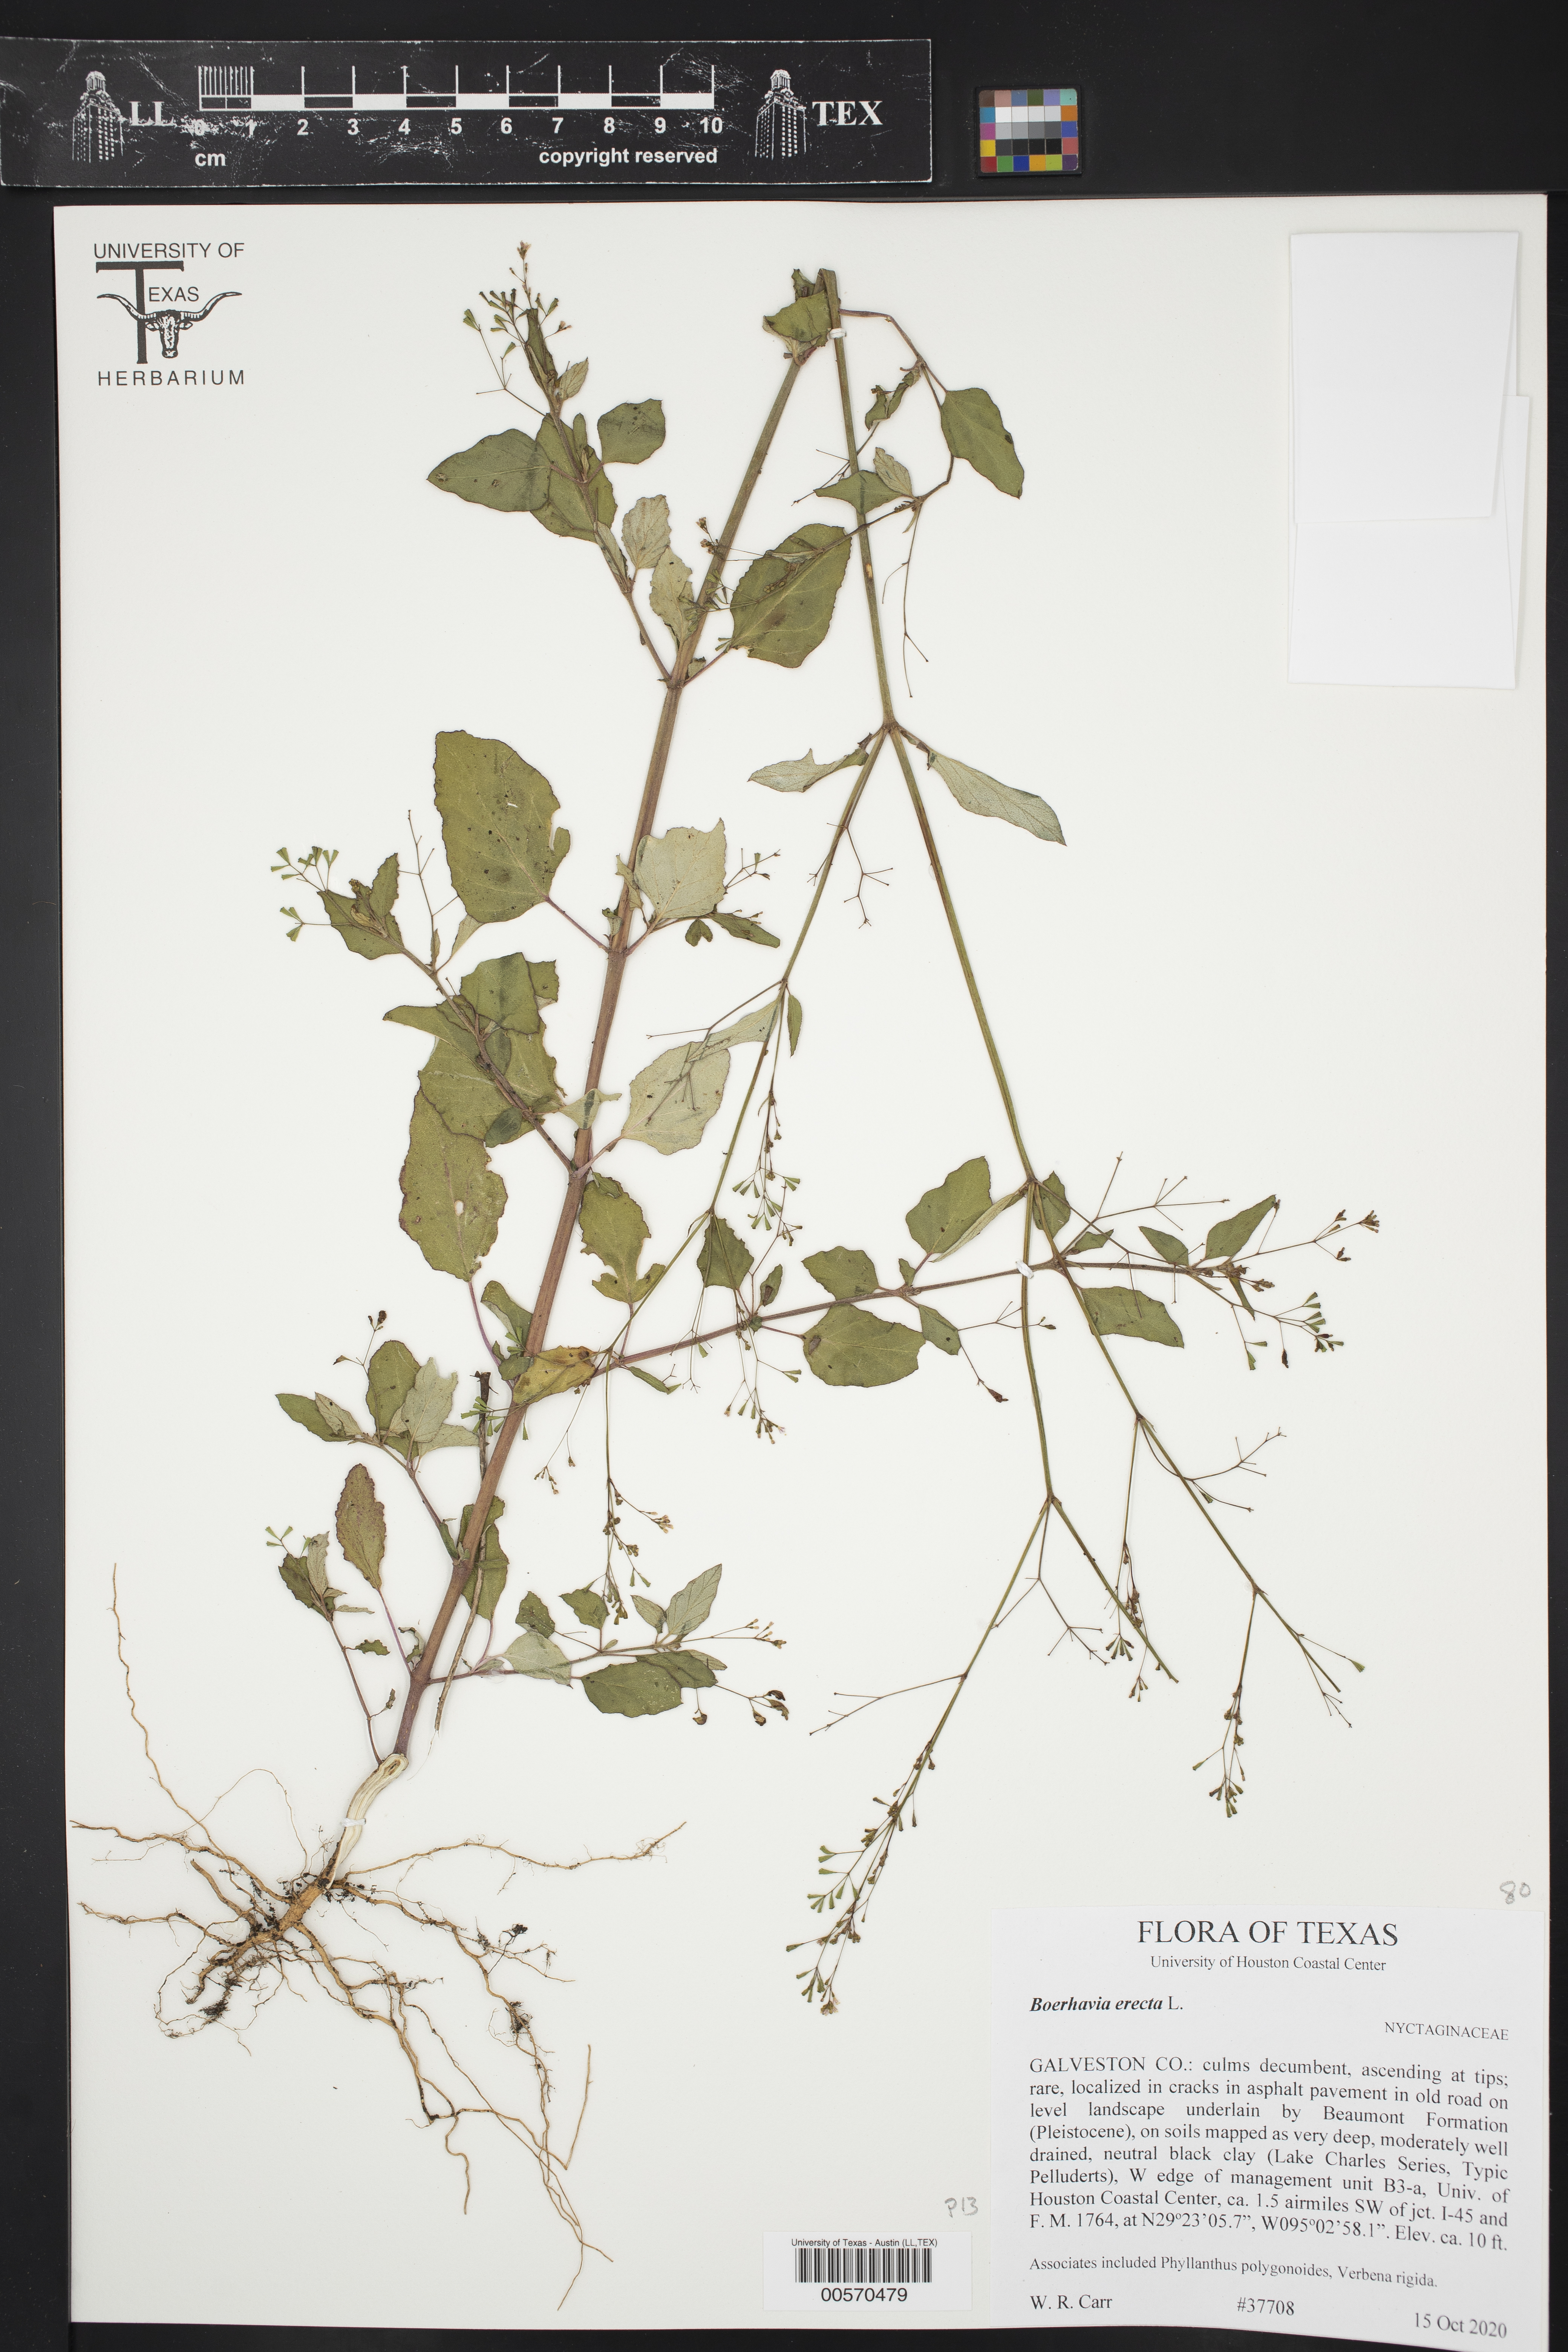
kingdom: Plantae
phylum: Tracheophyta
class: Magnoliopsida
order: Caryophyllales
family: Nyctaginaceae
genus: Boerhavia
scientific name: Boerhavia erecta
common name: Erect spiderling
